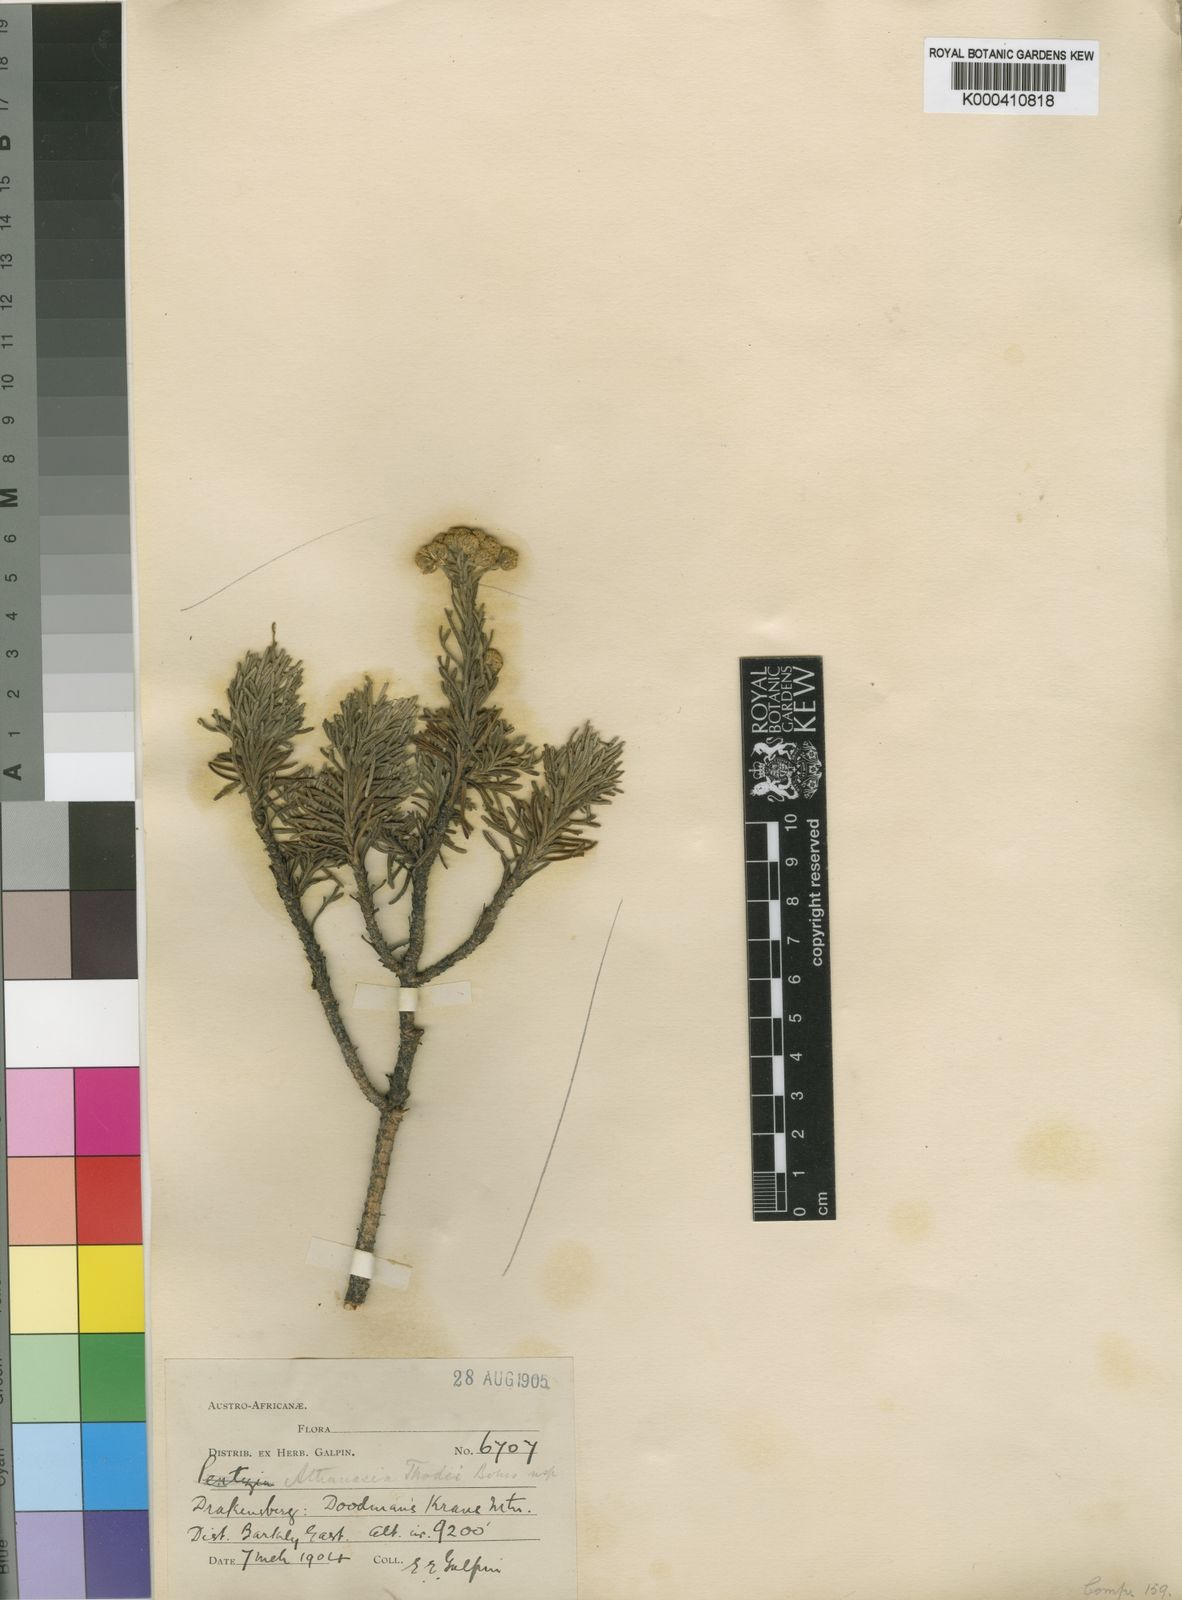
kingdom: Plantae
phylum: Tracheophyta
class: Magnoliopsida
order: Asterales
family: Asteraceae
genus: Inulanthera
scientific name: Inulanthera
